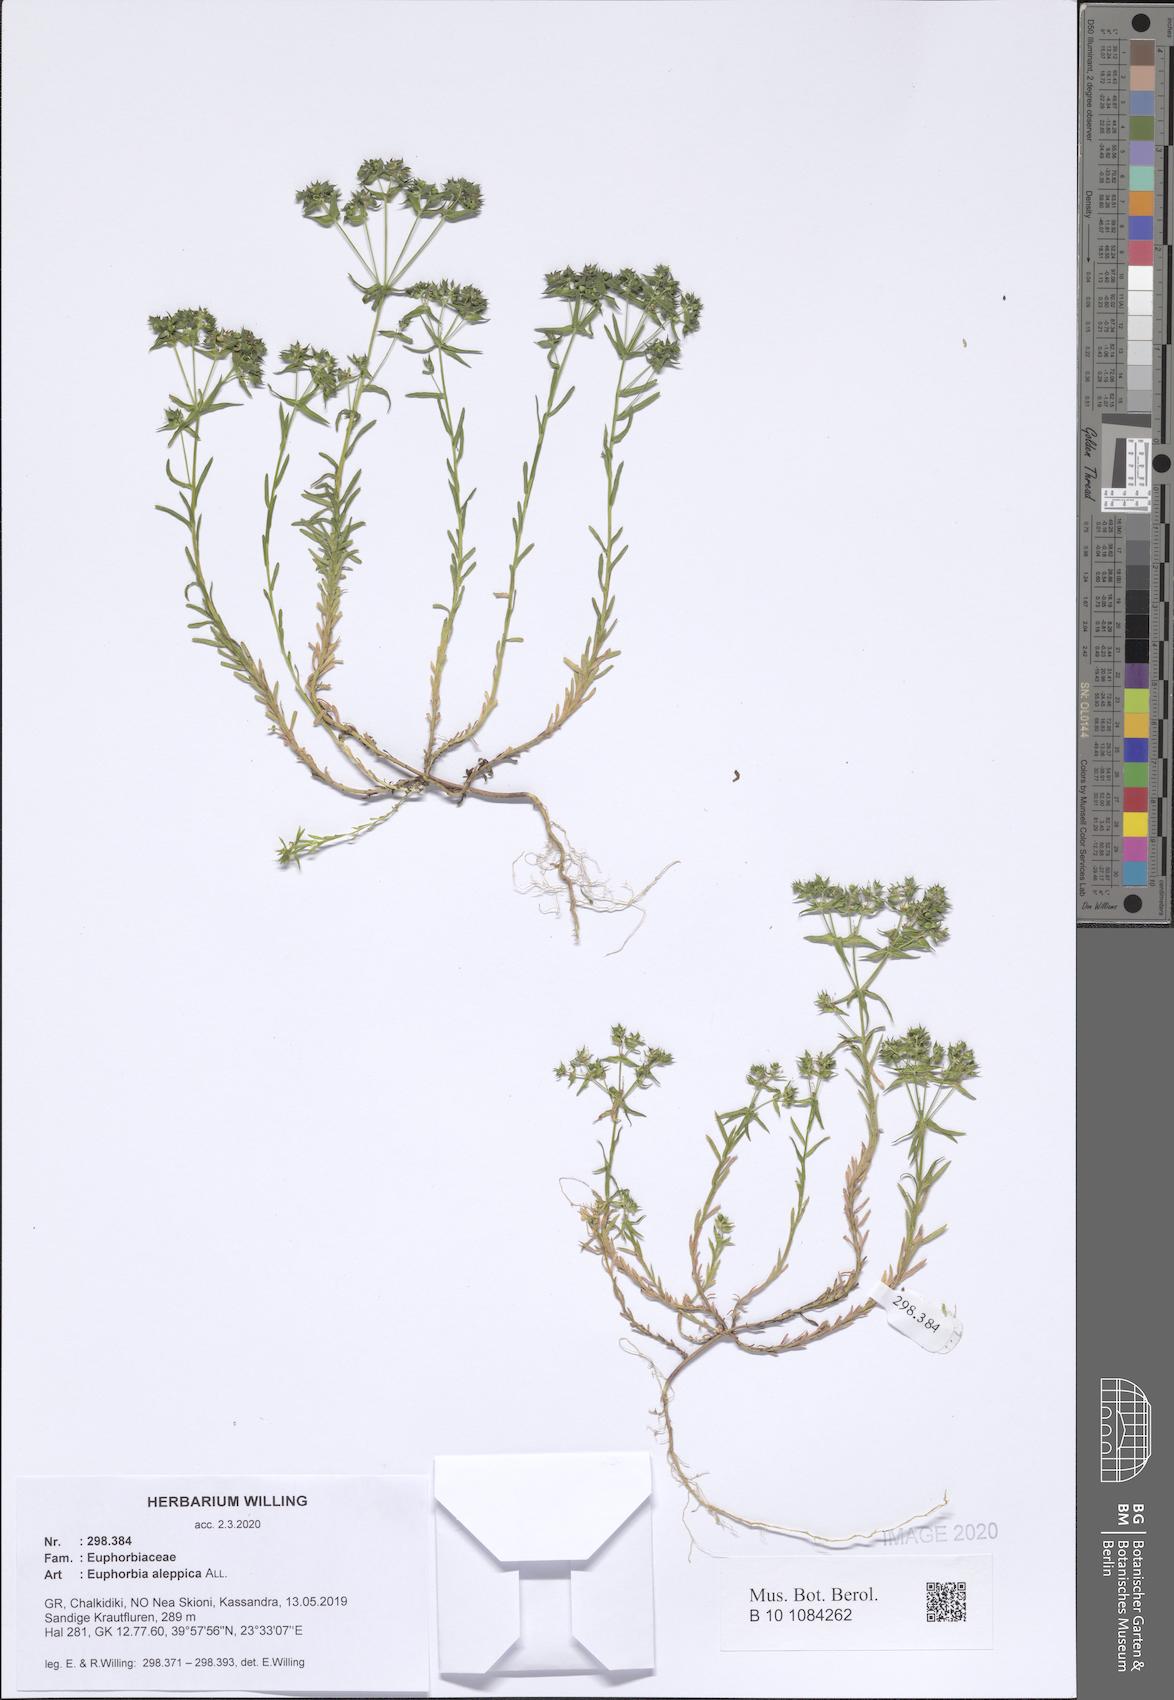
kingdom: Plantae
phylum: Tracheophyta
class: Magnoliopsida
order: Malpighiales
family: Euphorbiaceae
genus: Euphorbia
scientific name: Euphorbia aleppica
